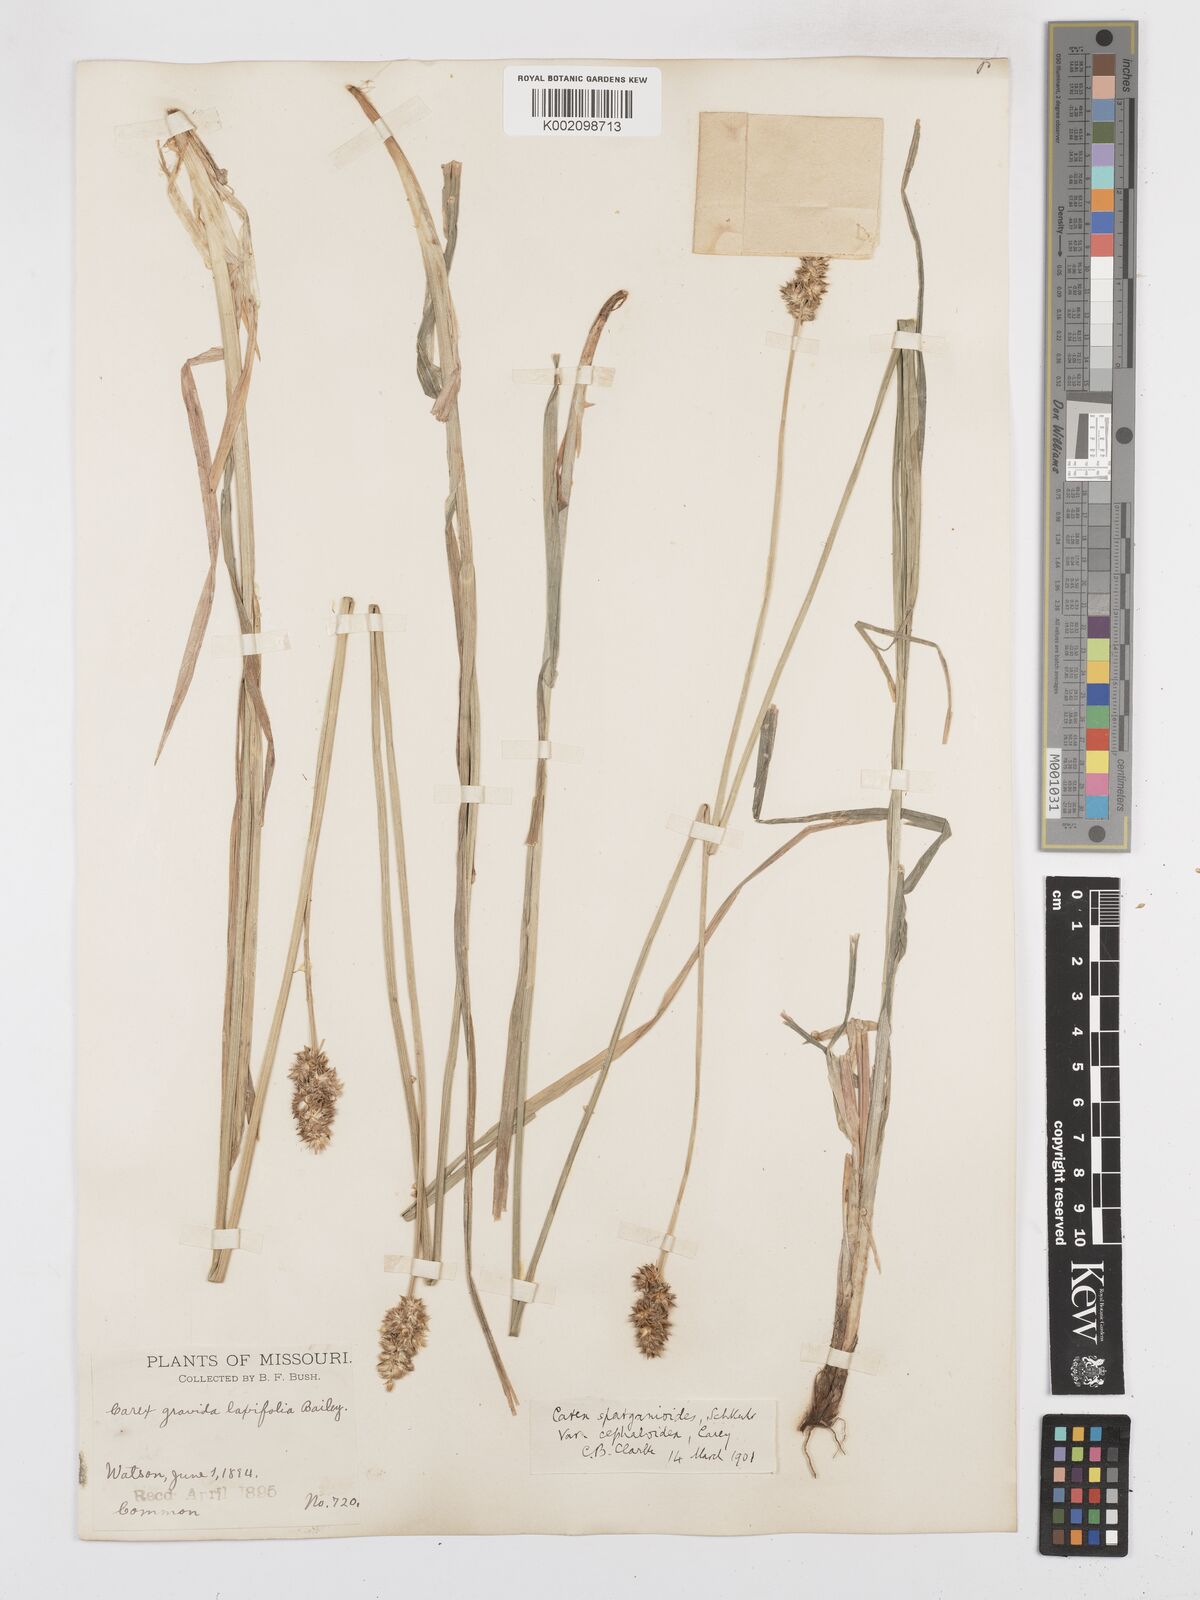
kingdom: Plantae
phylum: Tracheophyta
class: Liliopsida
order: Poales
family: Cyperaceae
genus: Carex
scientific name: Carex gravida
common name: Heavy sedge
